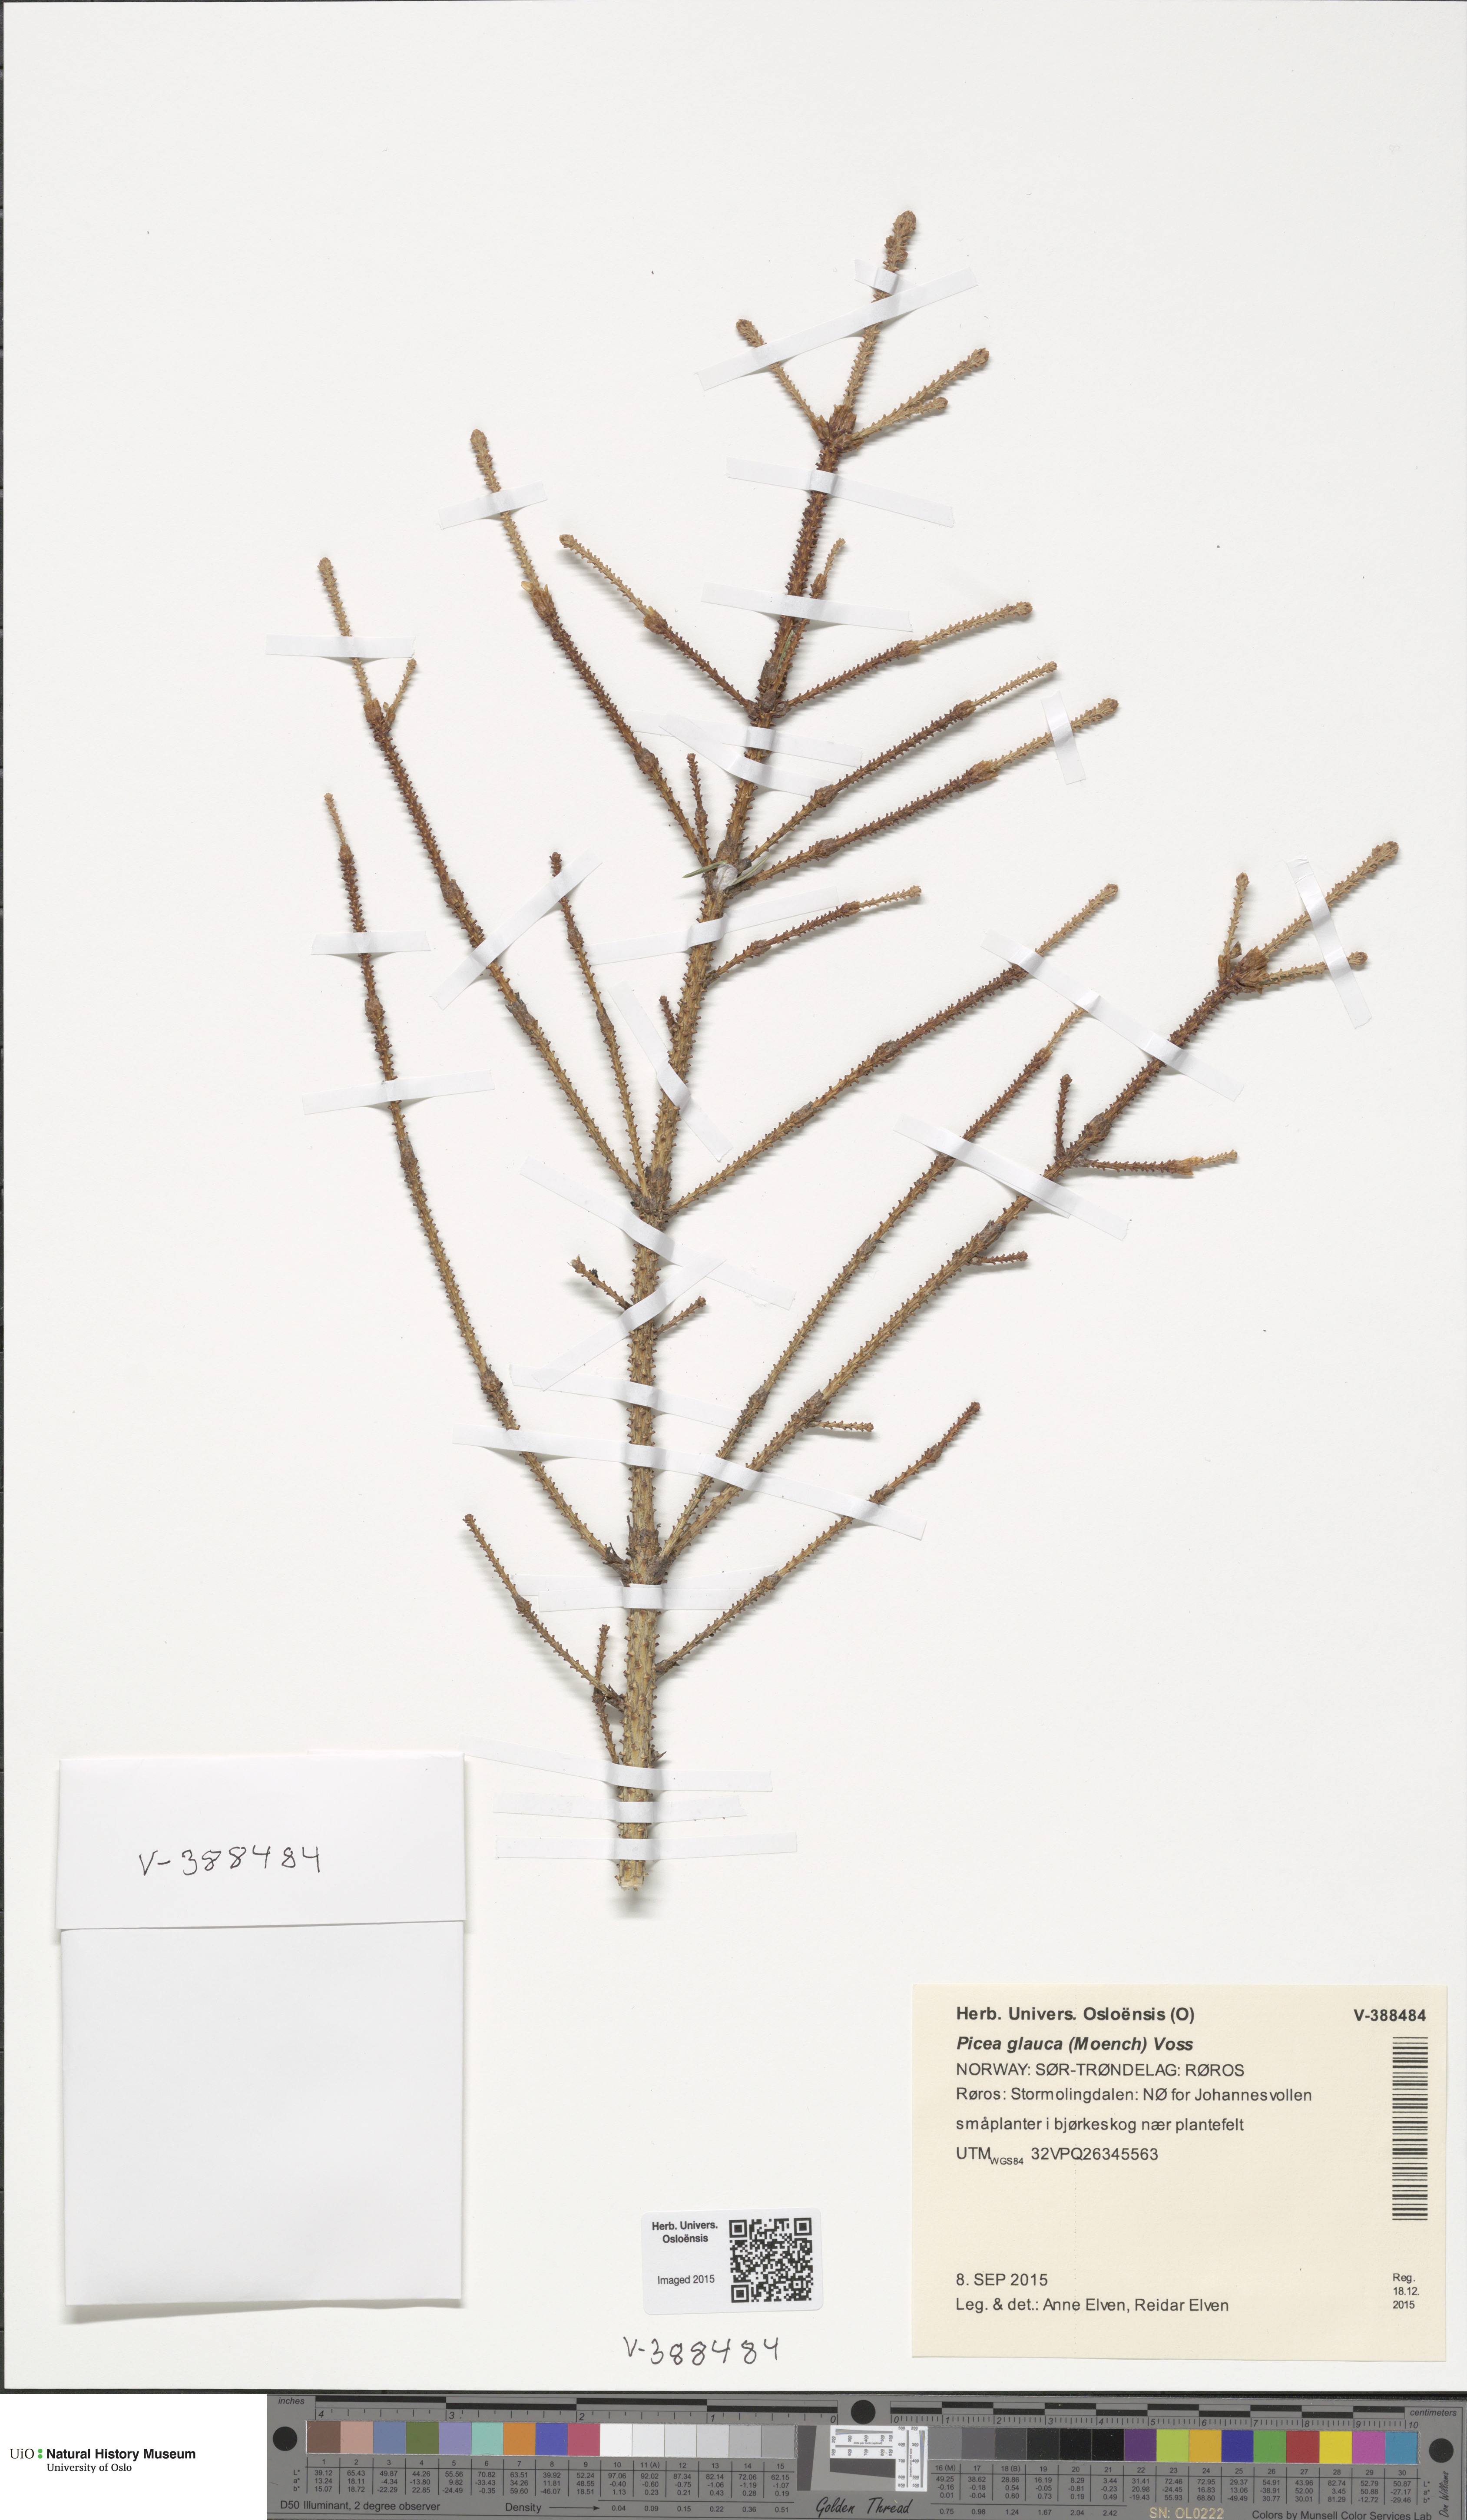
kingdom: Plantae
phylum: Tracheophyta
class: Pinopsida
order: Pinales
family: Pinaceae
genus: Picea
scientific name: Picea glauca
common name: White spruce
